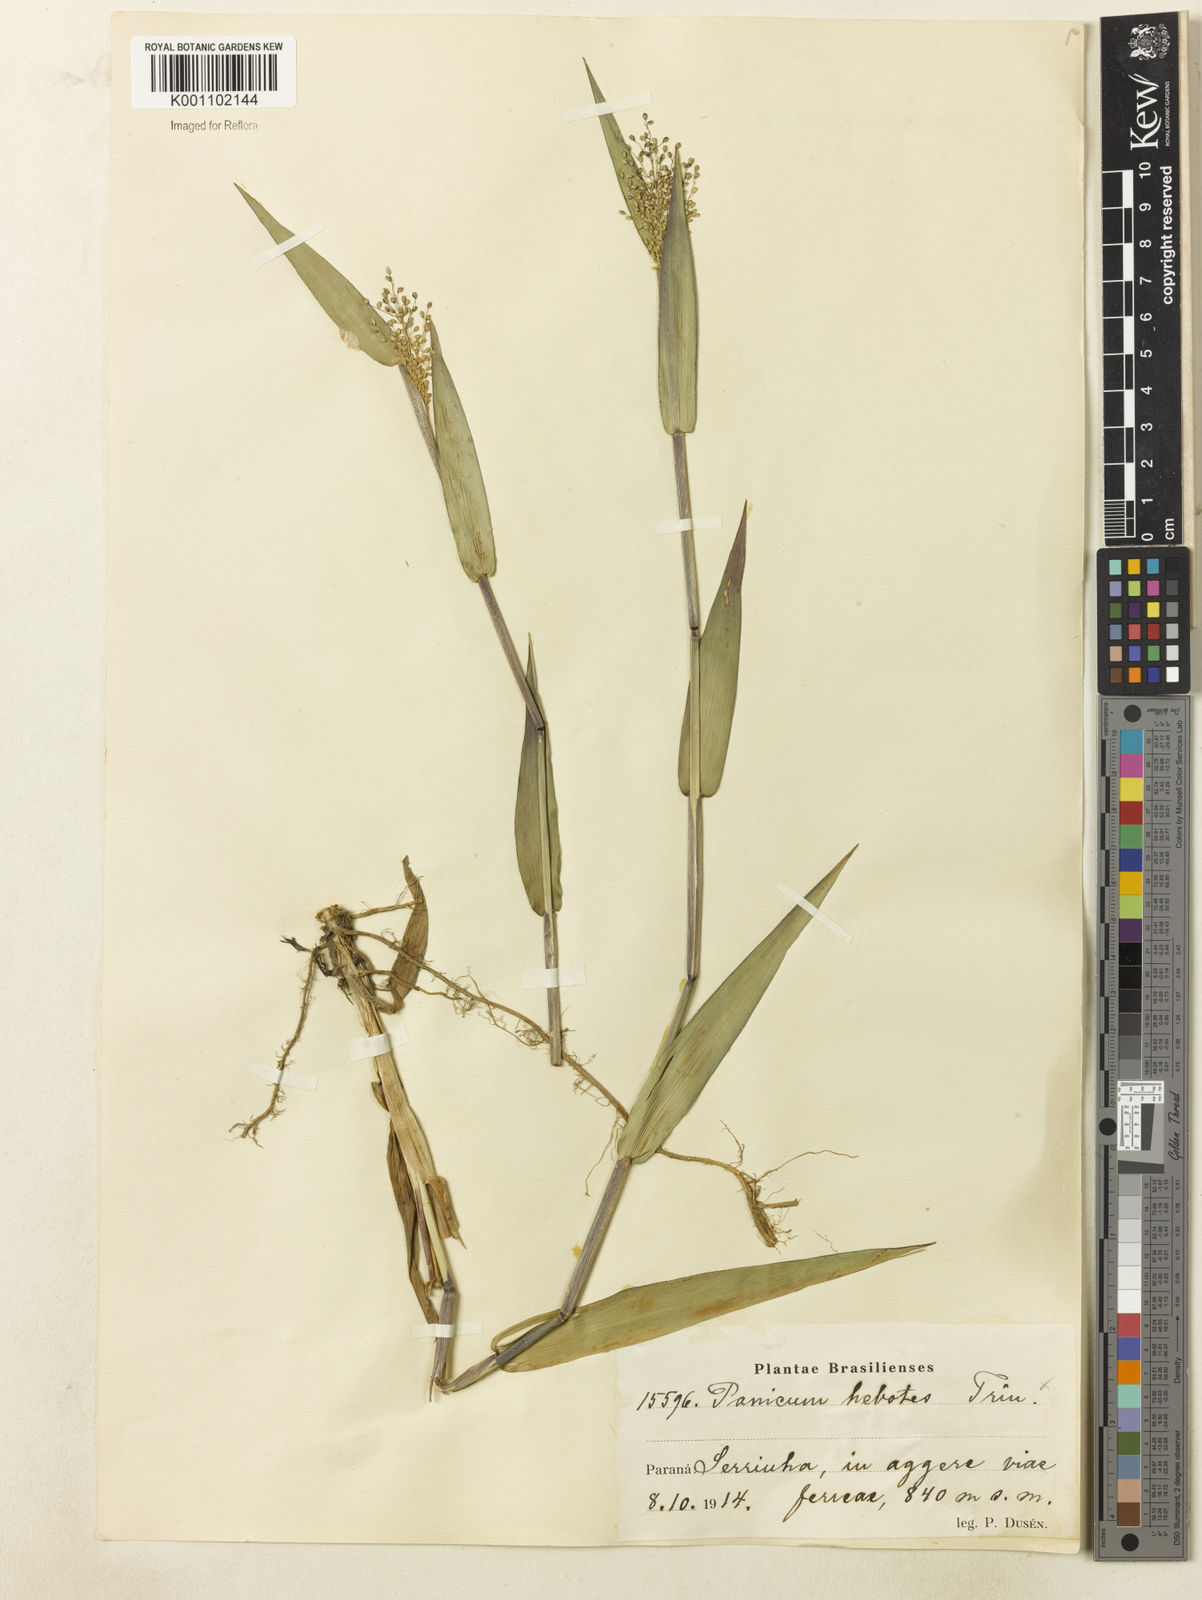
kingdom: Plantae
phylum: Tracheophyta
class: Liliopsida
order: Poales
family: Poaceae
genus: Dichanthelium
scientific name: Dichanthelium stigmosum
